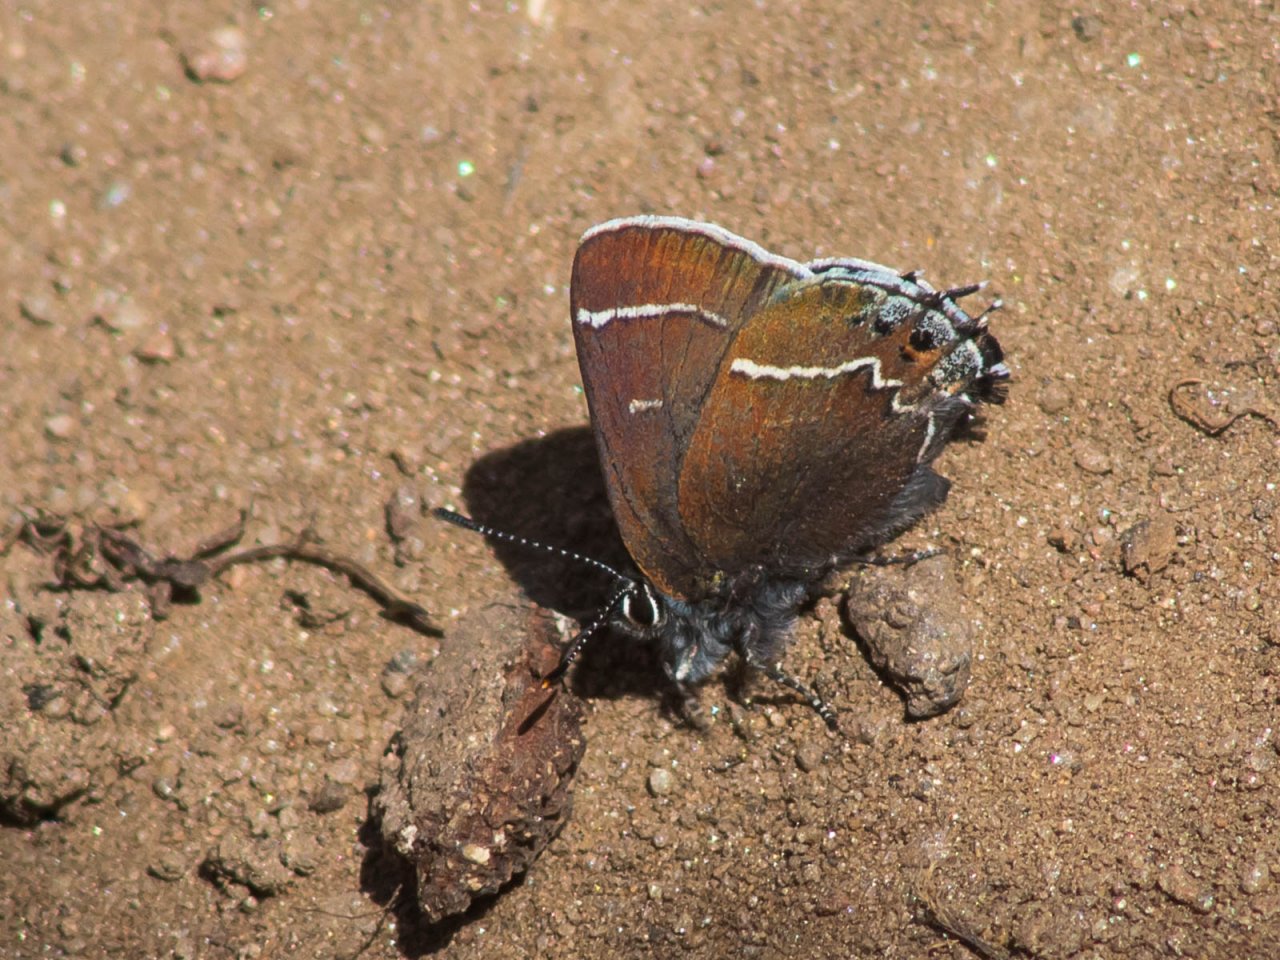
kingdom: Animalia
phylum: Arthropoda
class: Insecta
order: Lepidoptera
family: Lycaenidae
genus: Mitoura
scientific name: Mitoura spinetorum
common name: Thicket Hairstreak
